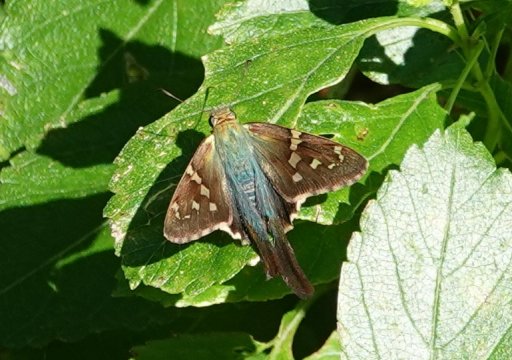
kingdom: Animalia
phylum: Arthropoda
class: Insecta
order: Lepidoptera
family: Hesperiidae
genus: Urbanus
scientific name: Urbanus proteus
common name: Long-tailed Skipper
